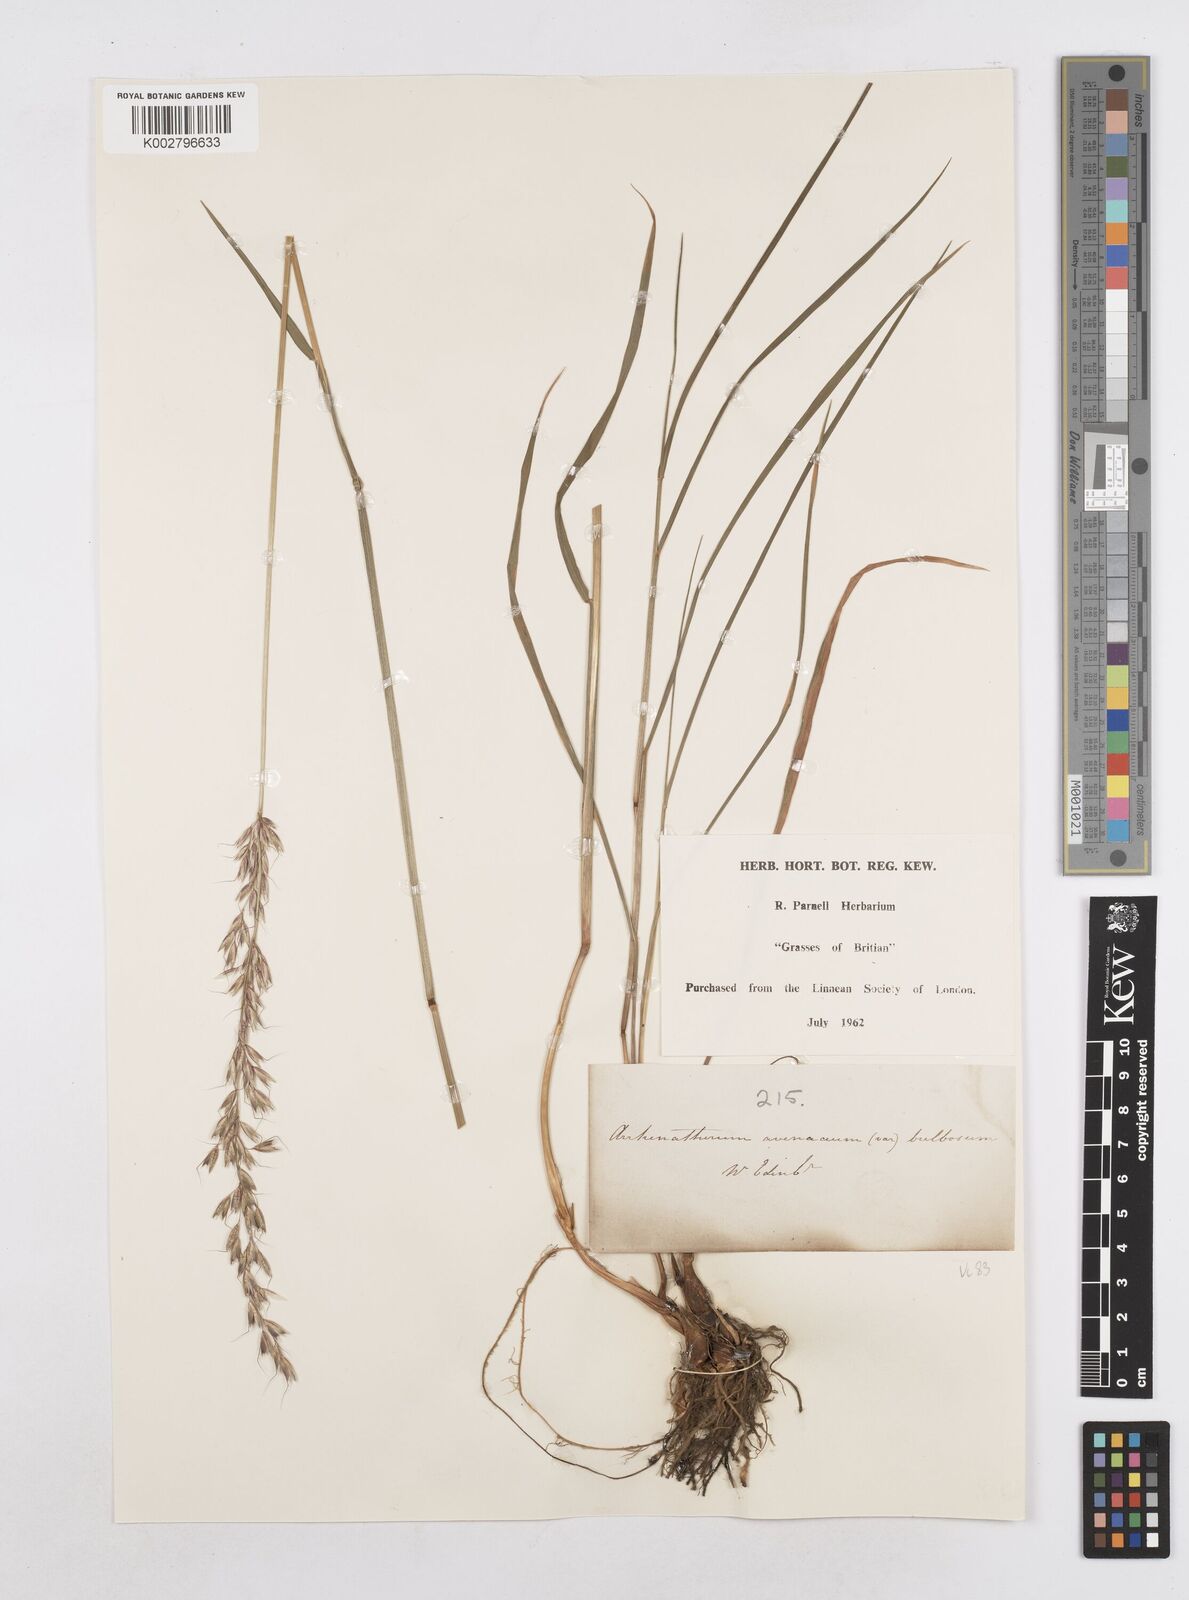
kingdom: Plantae
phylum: Tracheophyta
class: Liliopsida
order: Poales
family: Poaceae
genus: Arrhenatherum
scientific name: Arrhenatherum elatius
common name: Tall oatgrass
